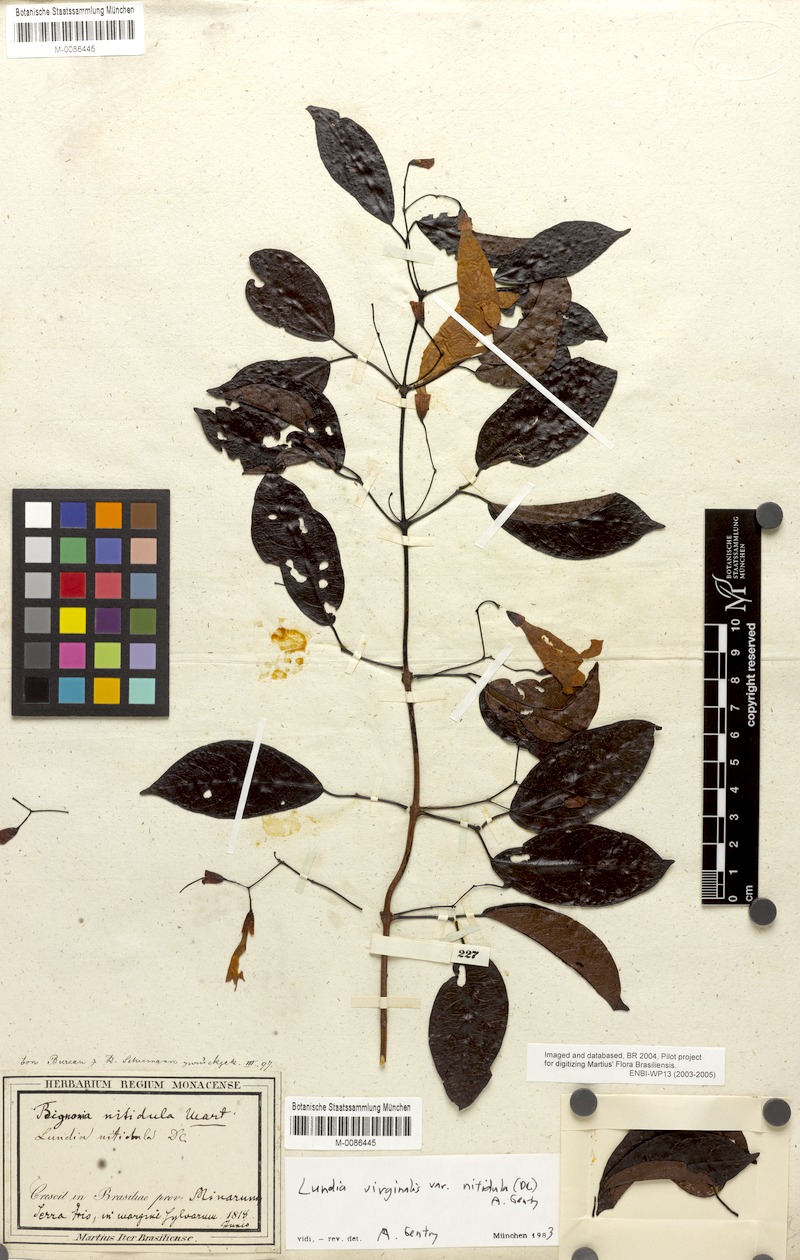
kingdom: Plantae
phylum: Tracheophyta
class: Magnoliopsida
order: Lamiales
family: Bignoniaceae
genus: Lundia
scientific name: Lundia virginalis
